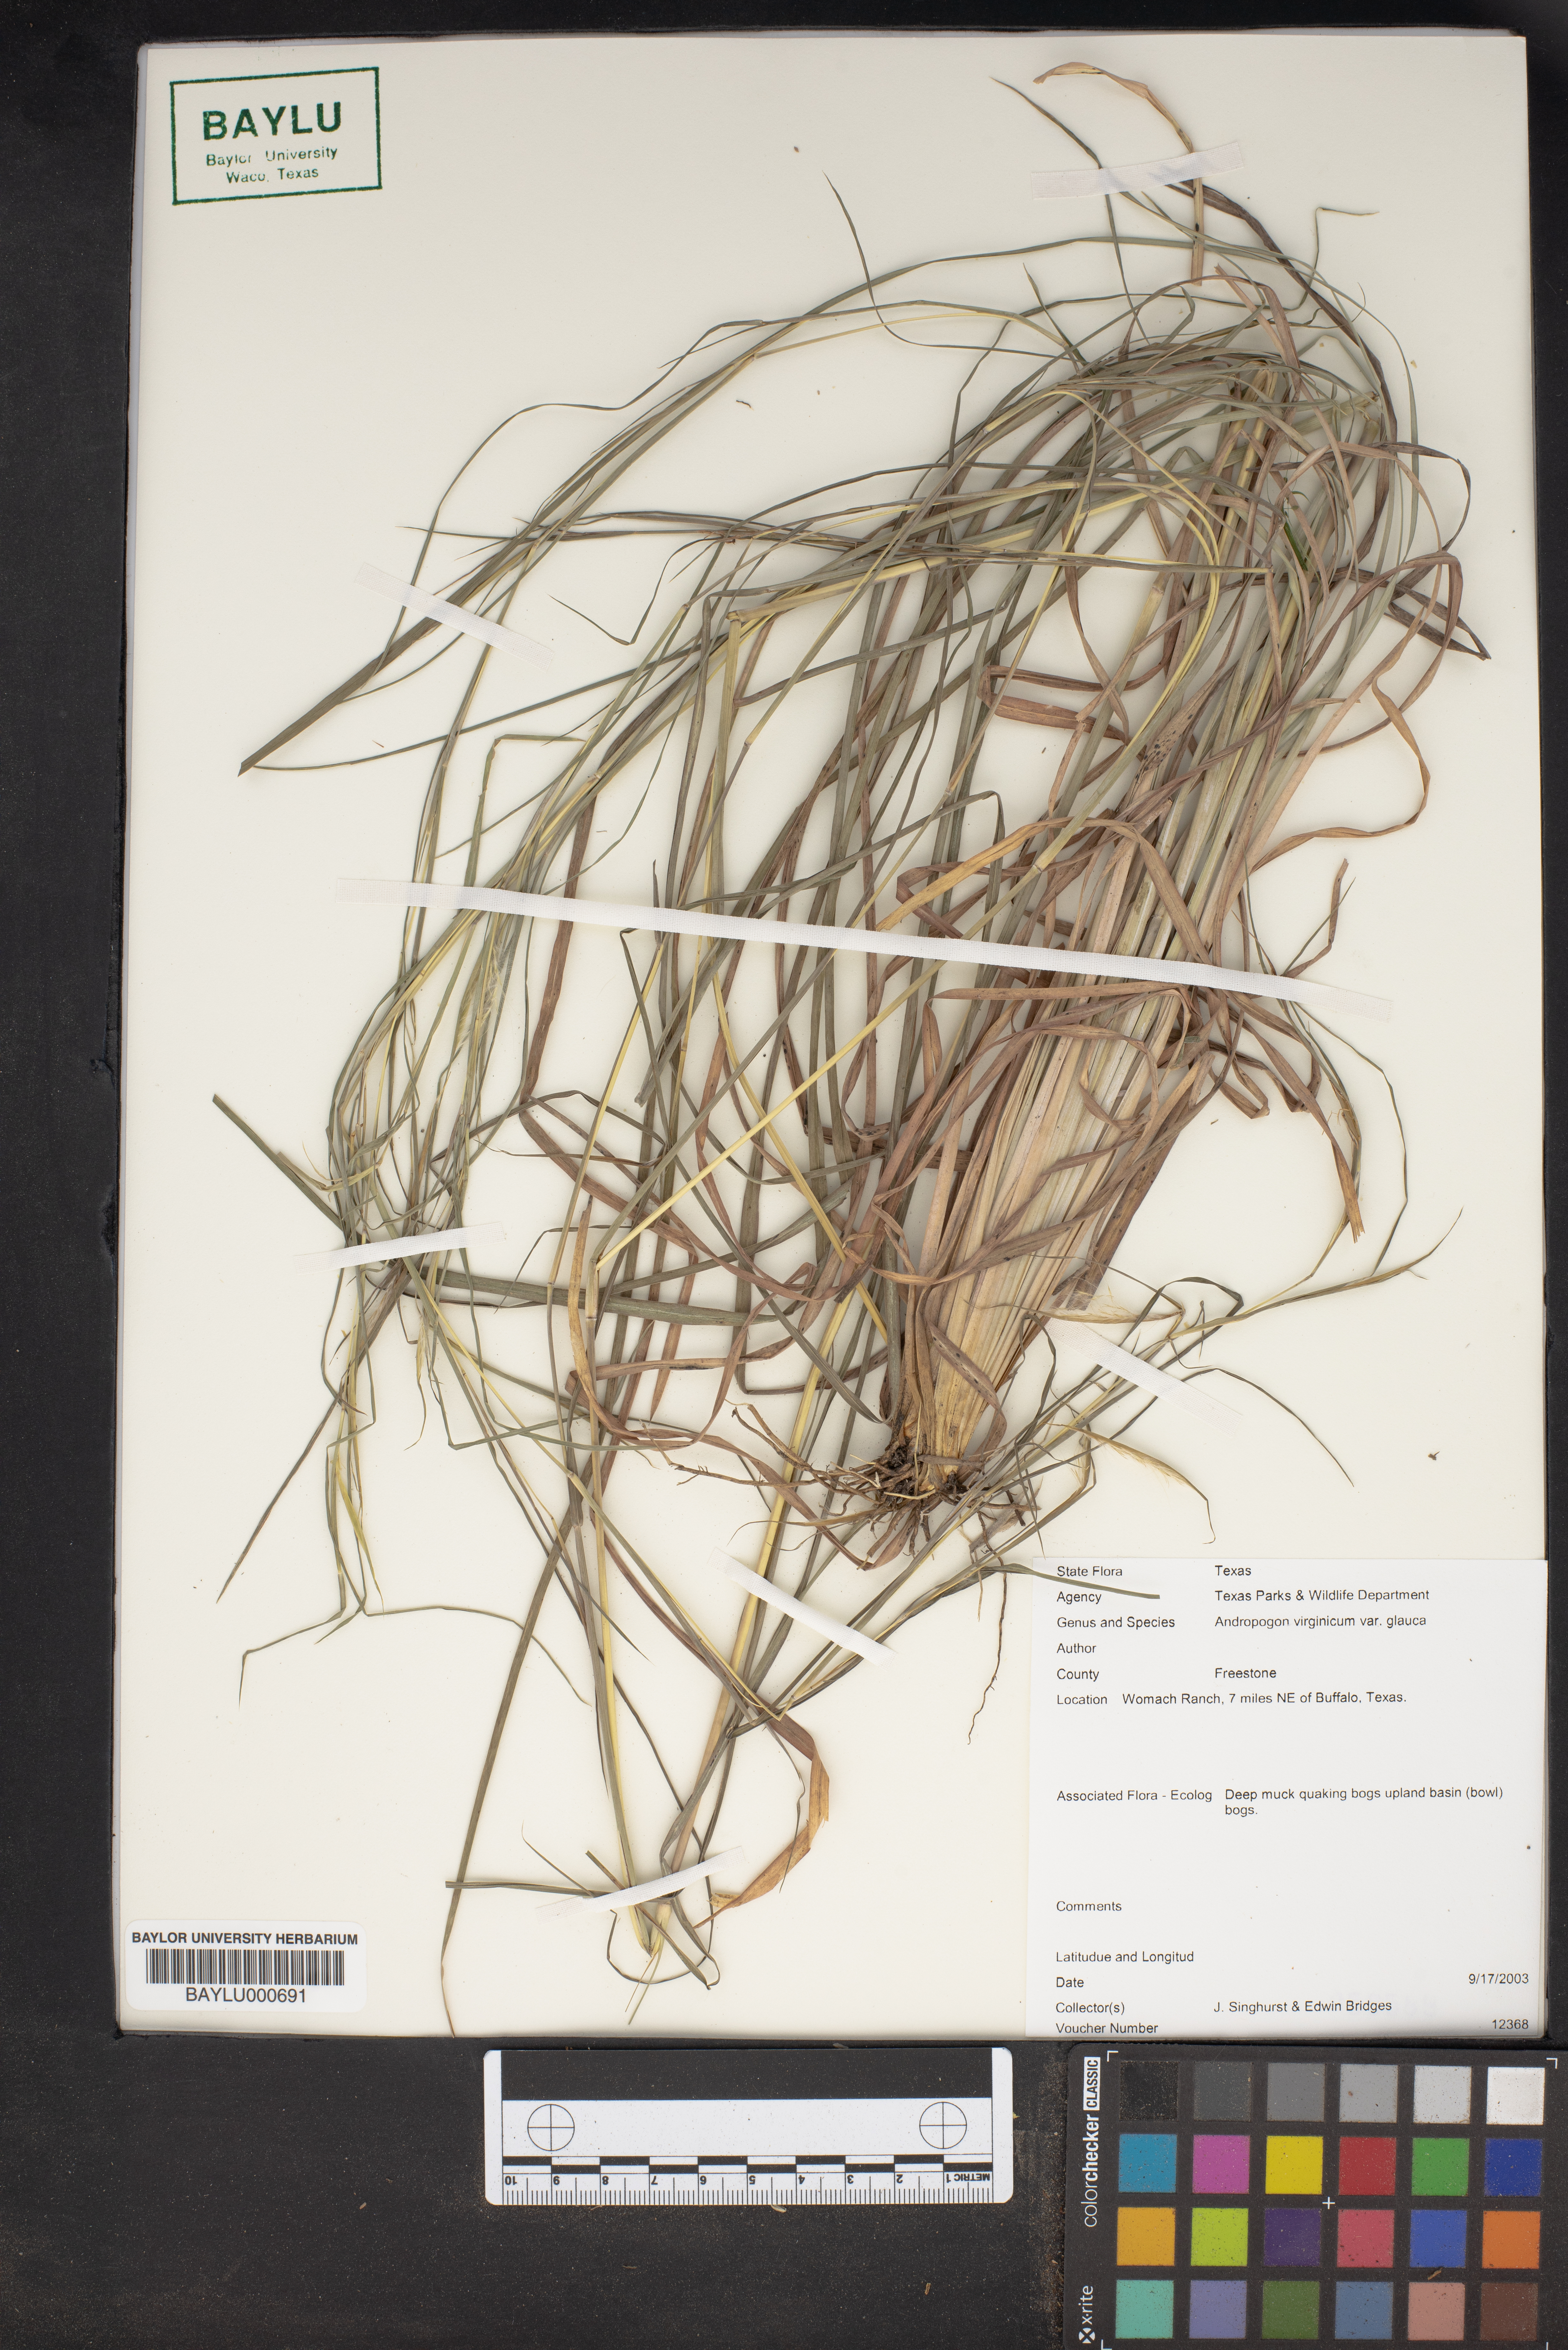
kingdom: Plantae
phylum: Tracheophyta
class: Liliopsida
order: Poales
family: Poaceae
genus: Andropogon
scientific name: Andropogon virginicus
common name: Broomsedge bluestem
